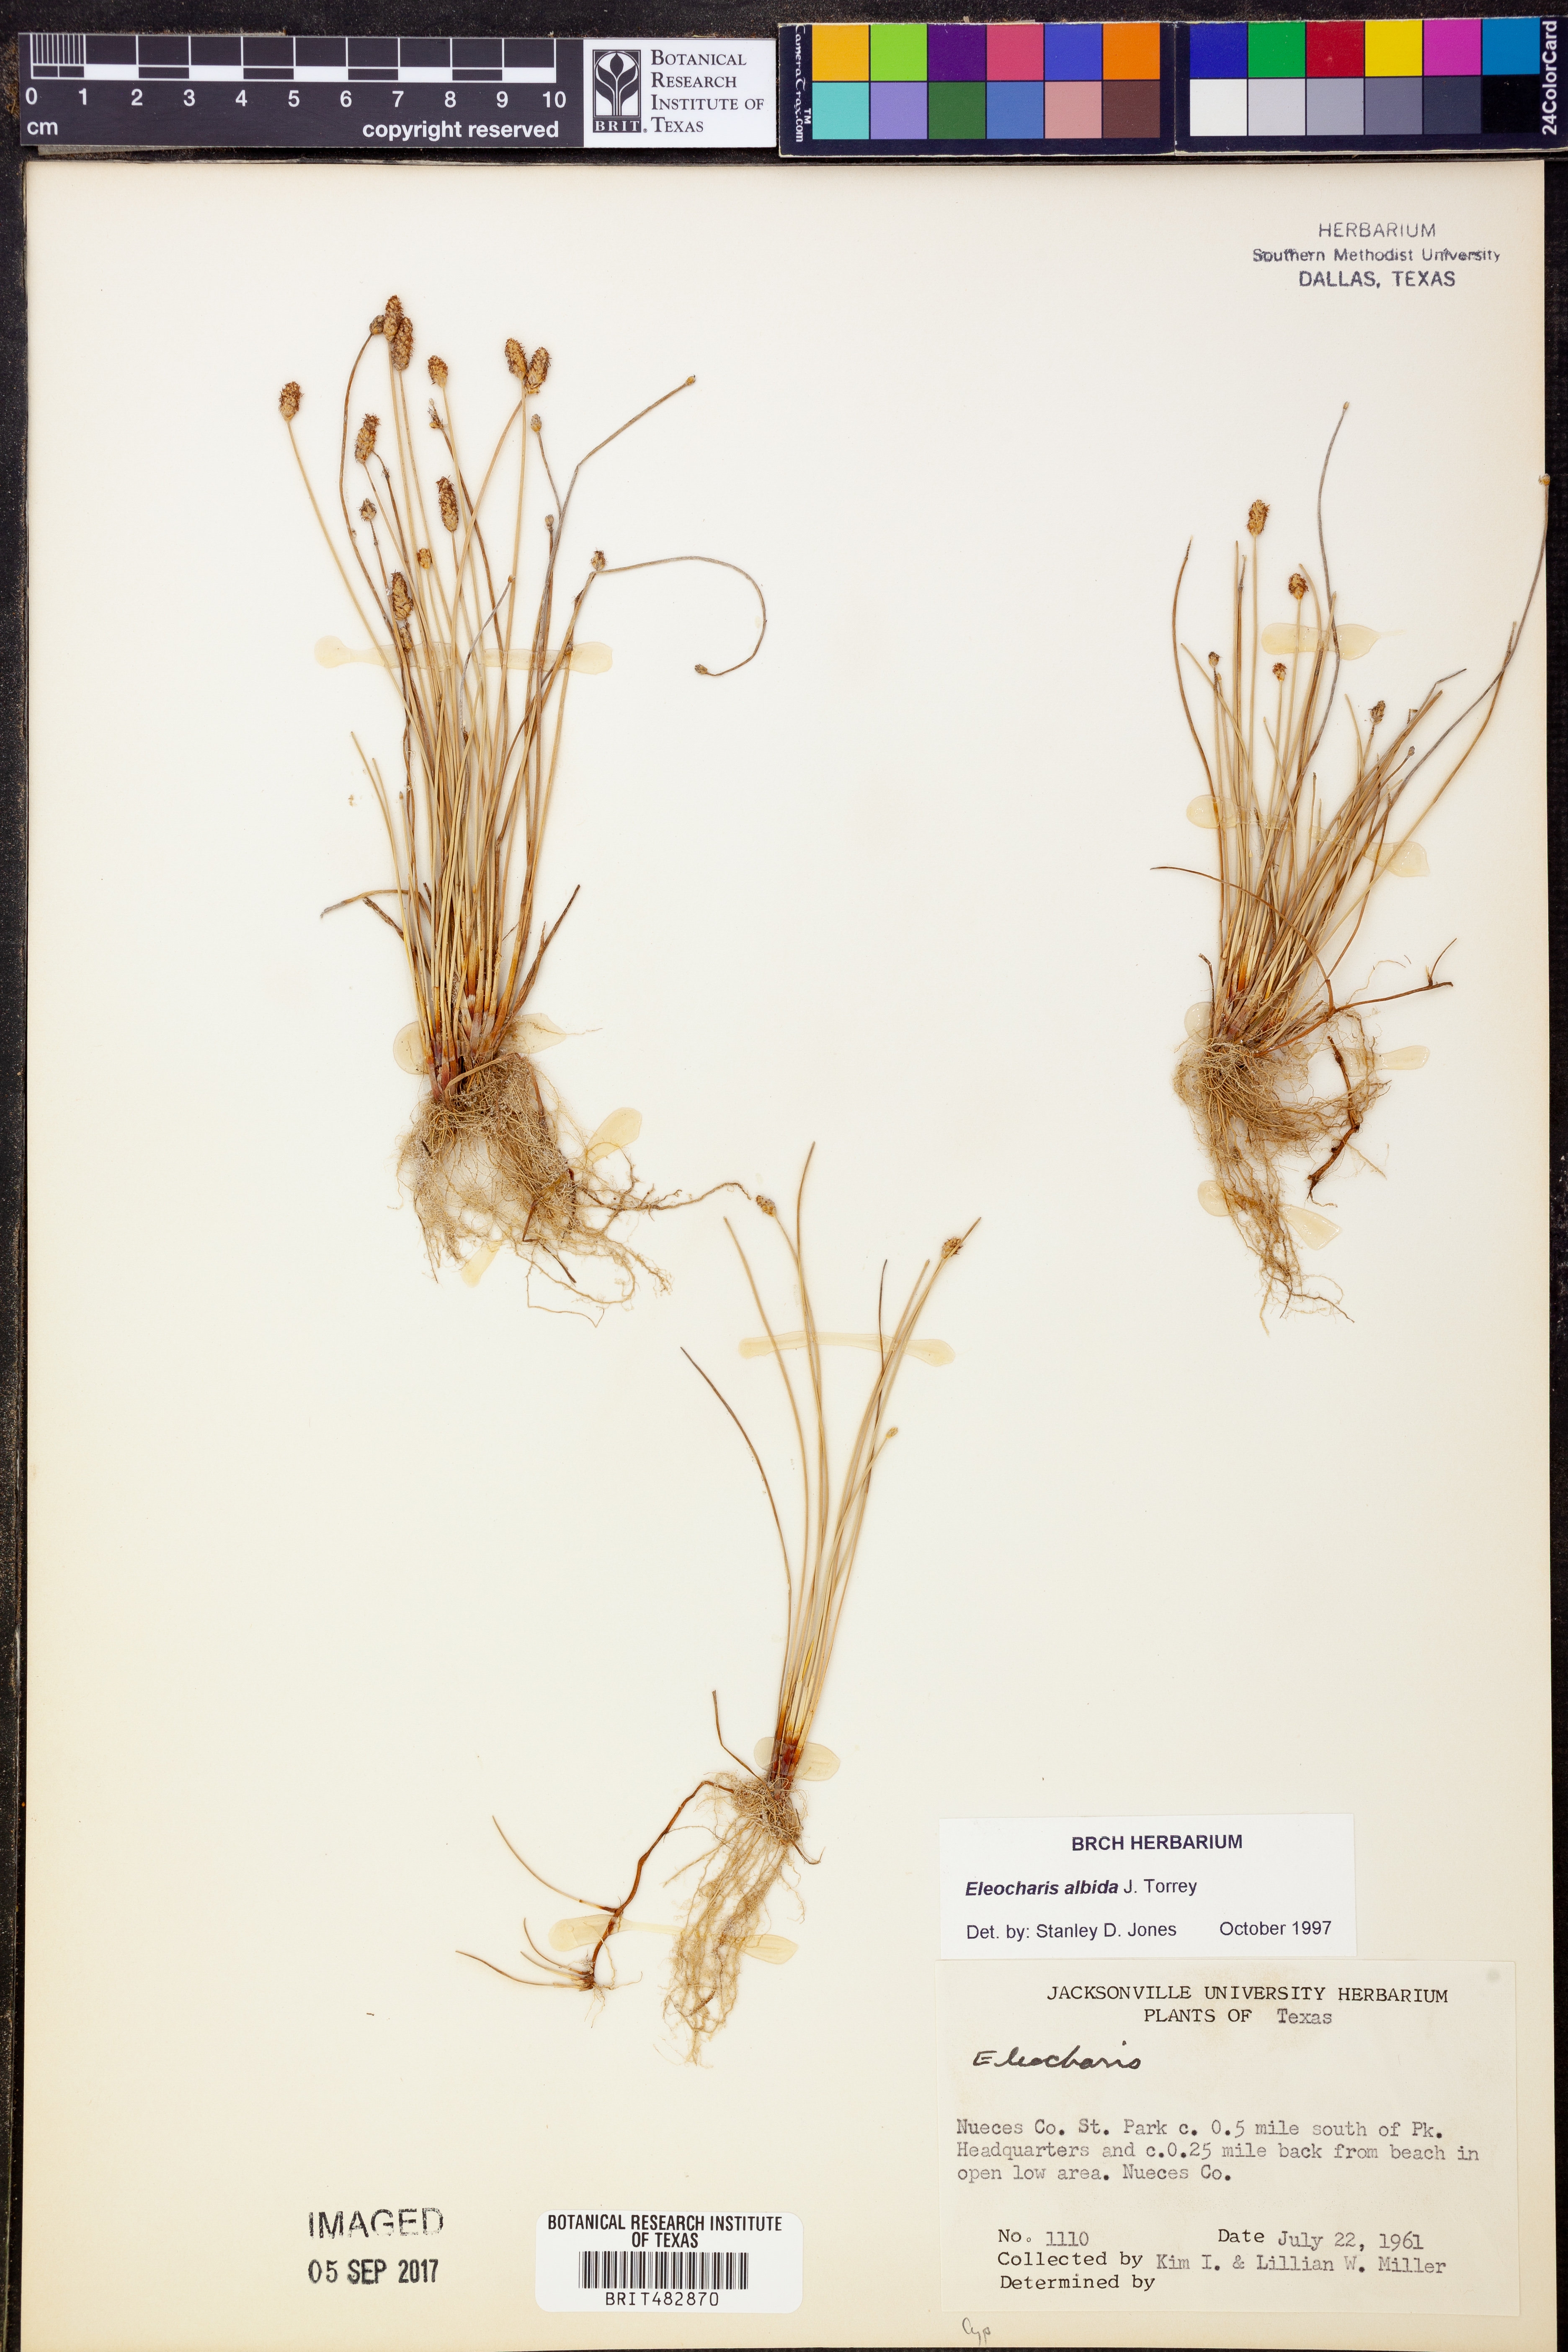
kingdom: Plantae
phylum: Tracheophyta
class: Liliopsida
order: Poales
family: Cyperaceae
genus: Eleocharis
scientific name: Eleocharis albida
